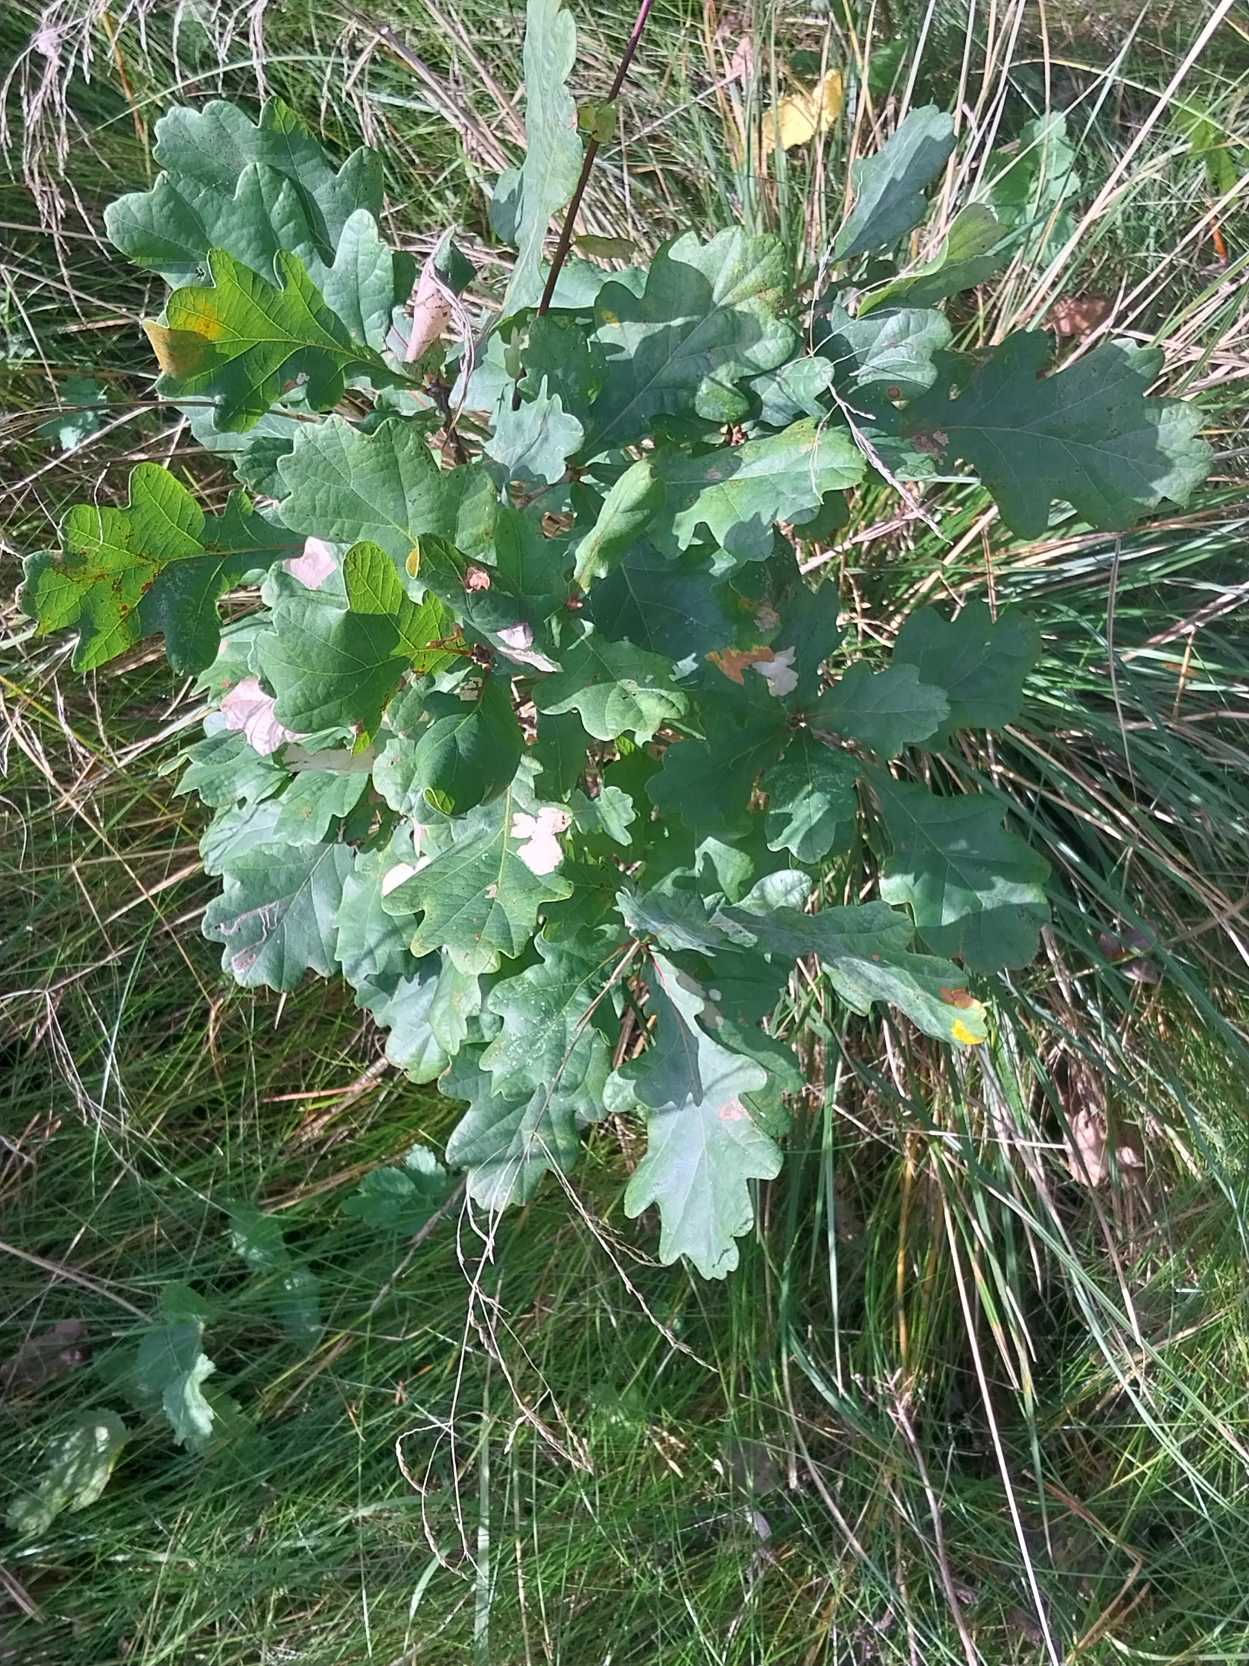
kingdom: Plantae
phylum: Tracheophyta
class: Magnoliopsida
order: Fagales
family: Fagaceae
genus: Quercus
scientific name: Quercus robur
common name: Stilk-eg/almindelig eg
